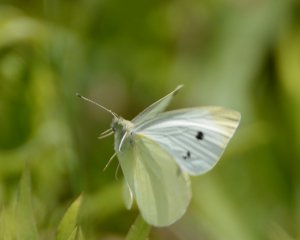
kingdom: Animalia
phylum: Arthropoda
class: Insecta
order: Lepidoptera
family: Pieridae
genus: Pieris
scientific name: Pieris rapae
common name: Cabbage White
